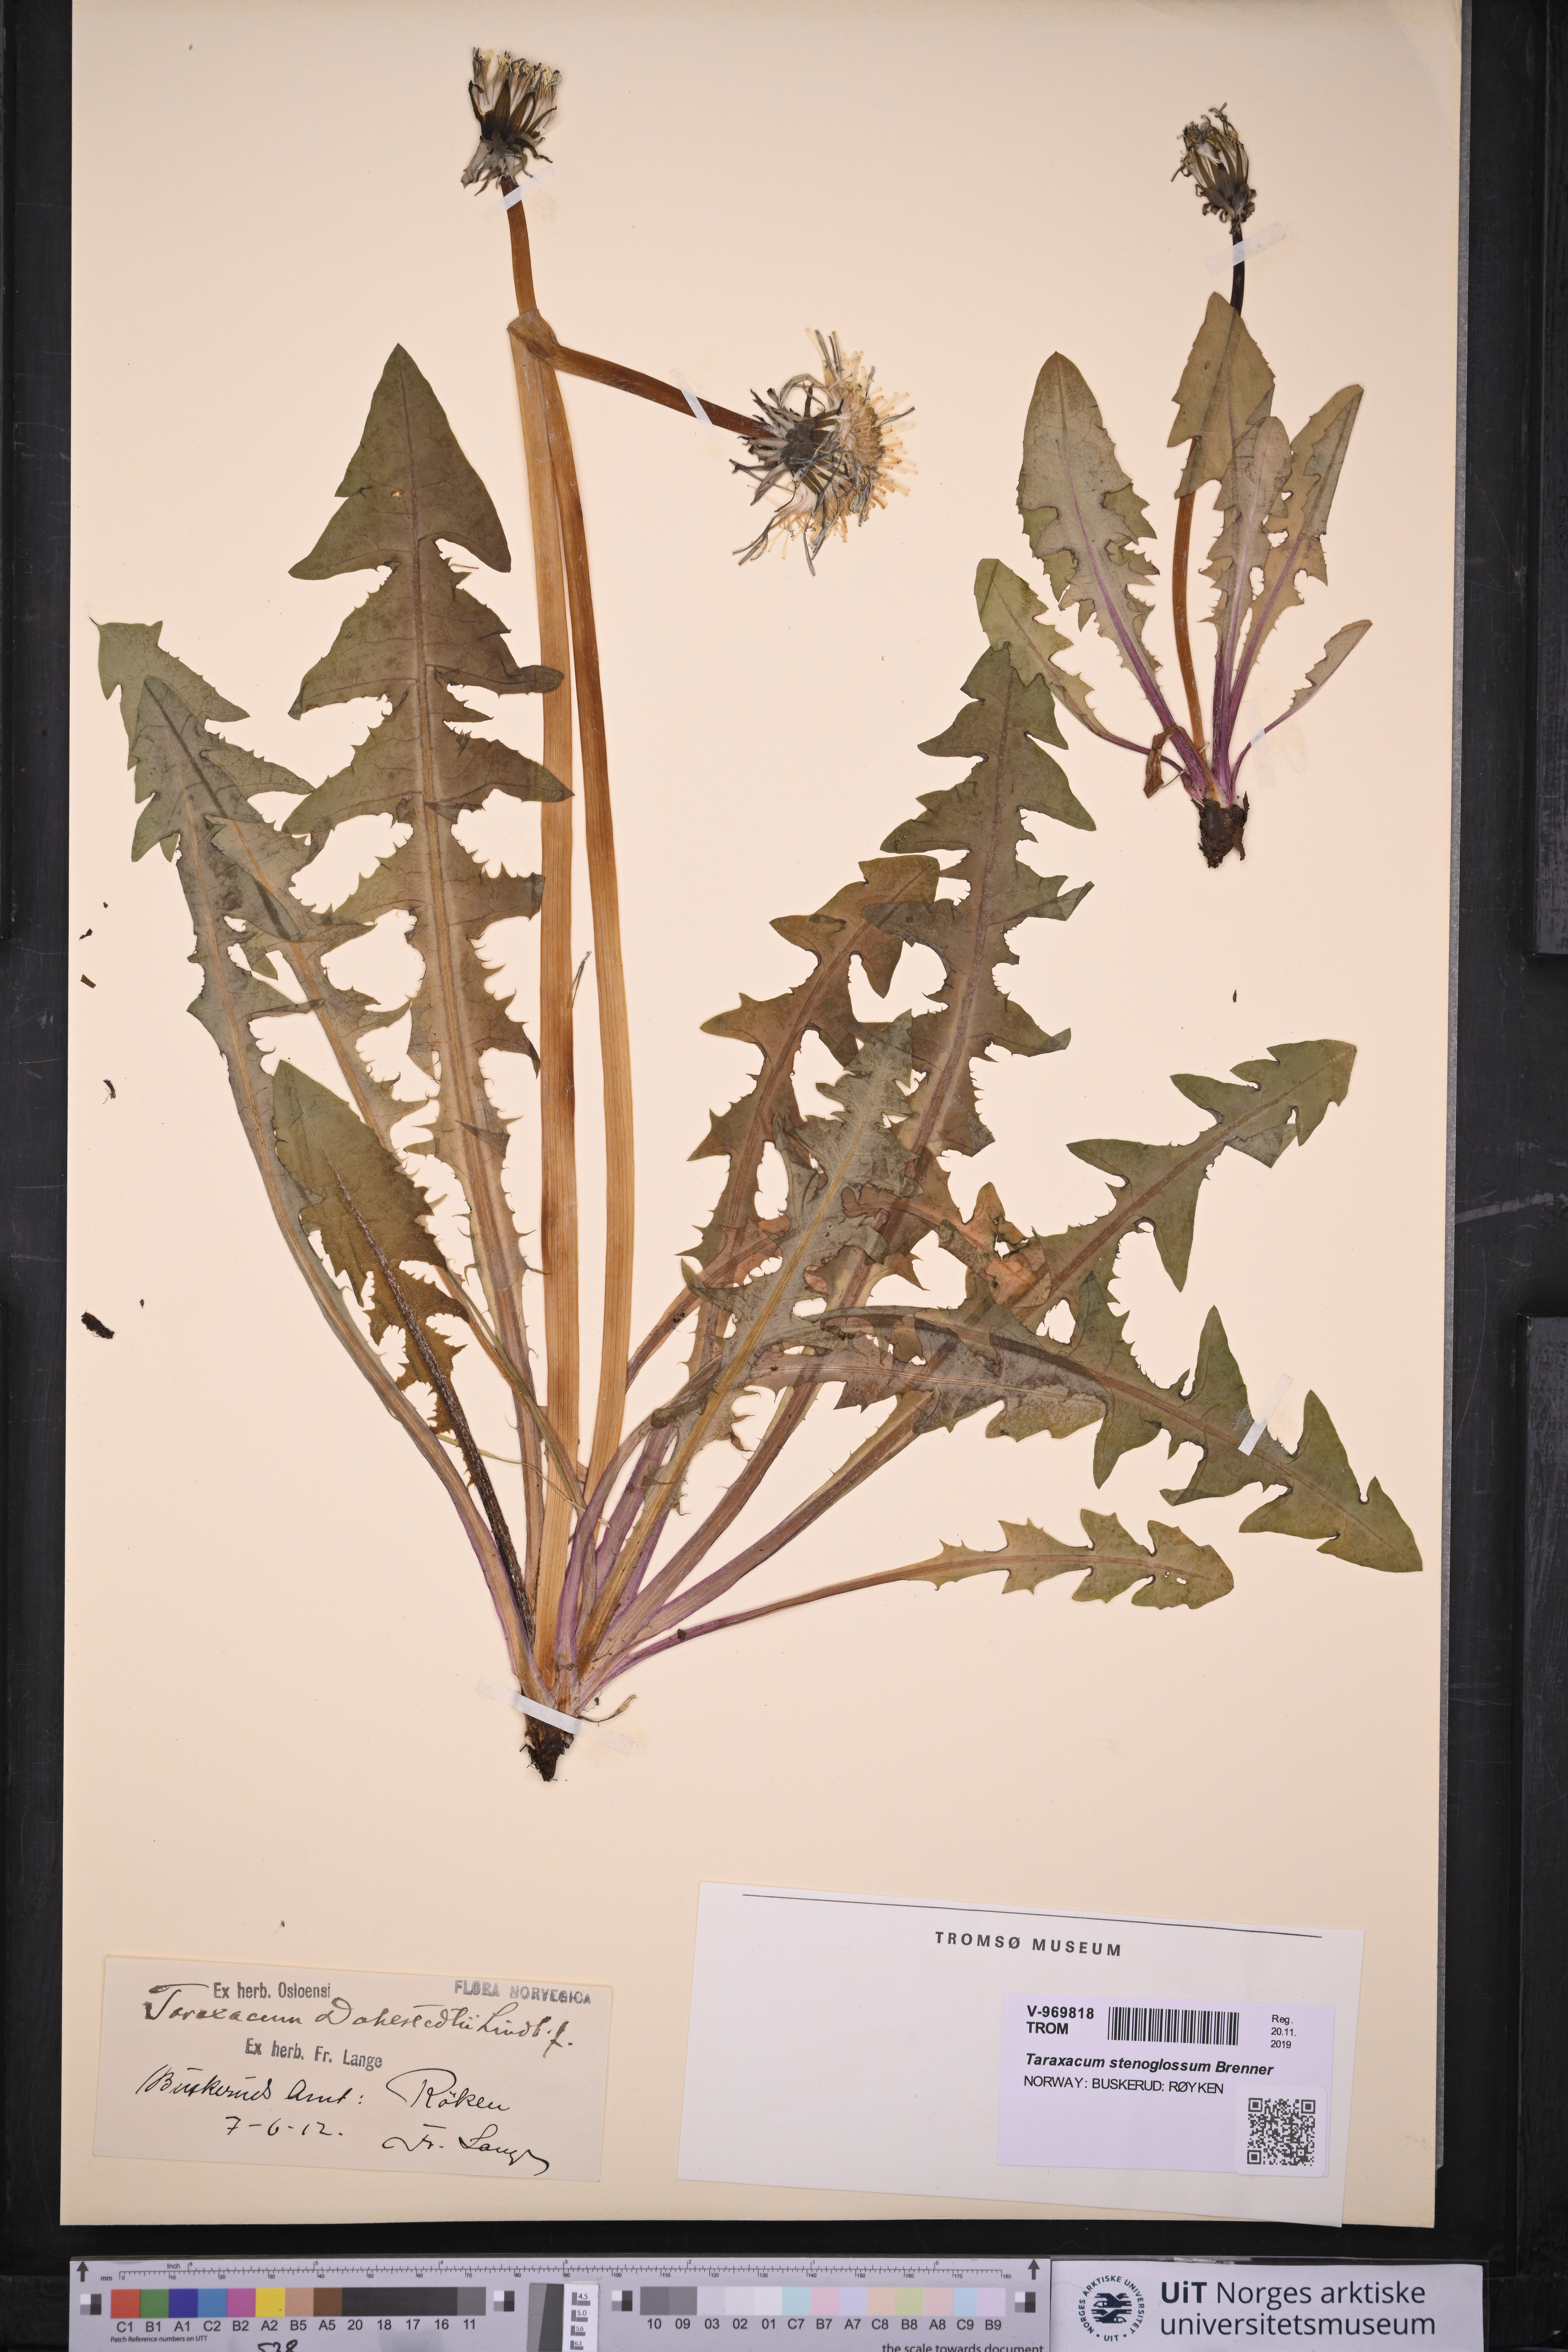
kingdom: Plantae
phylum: Tracheophyta
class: Magnoliopsida
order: Asterales
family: Asteraceae
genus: Taraxacum
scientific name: Taraxacum stenoglossum
